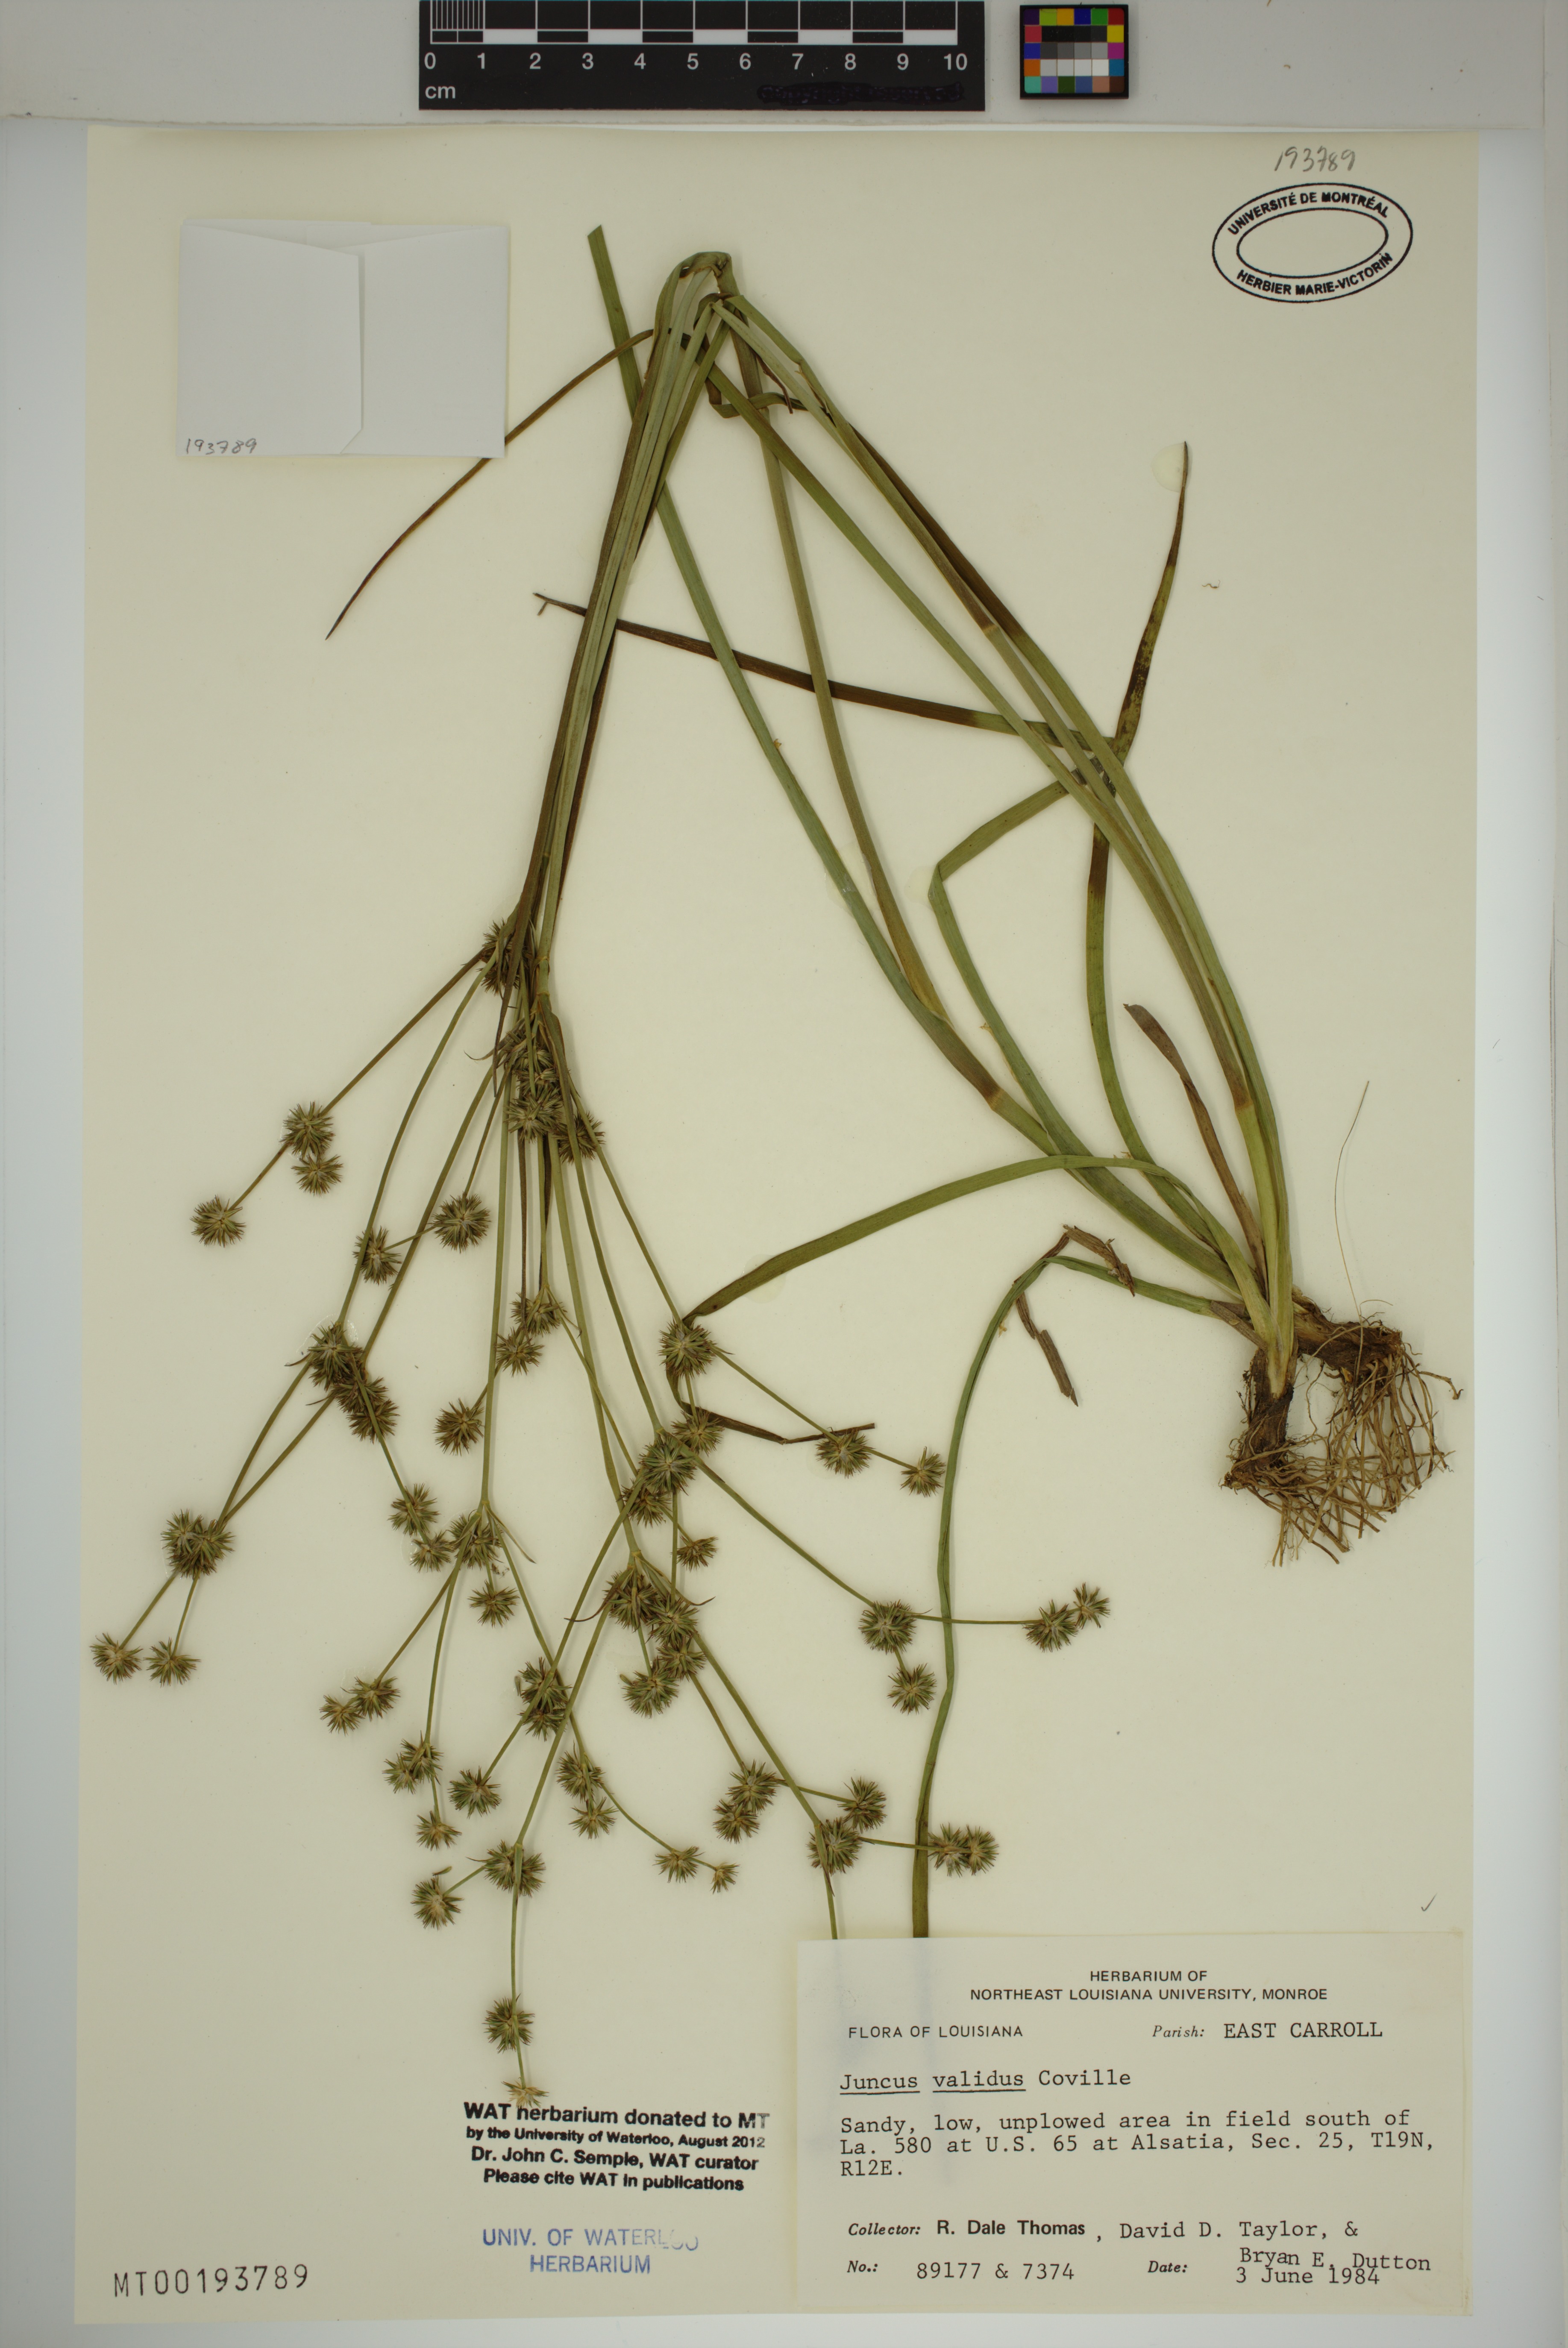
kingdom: Plantae
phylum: Tracheophyta
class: Liliopsida
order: Poales
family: Juncaceae
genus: Juncus
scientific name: Juncus validus
